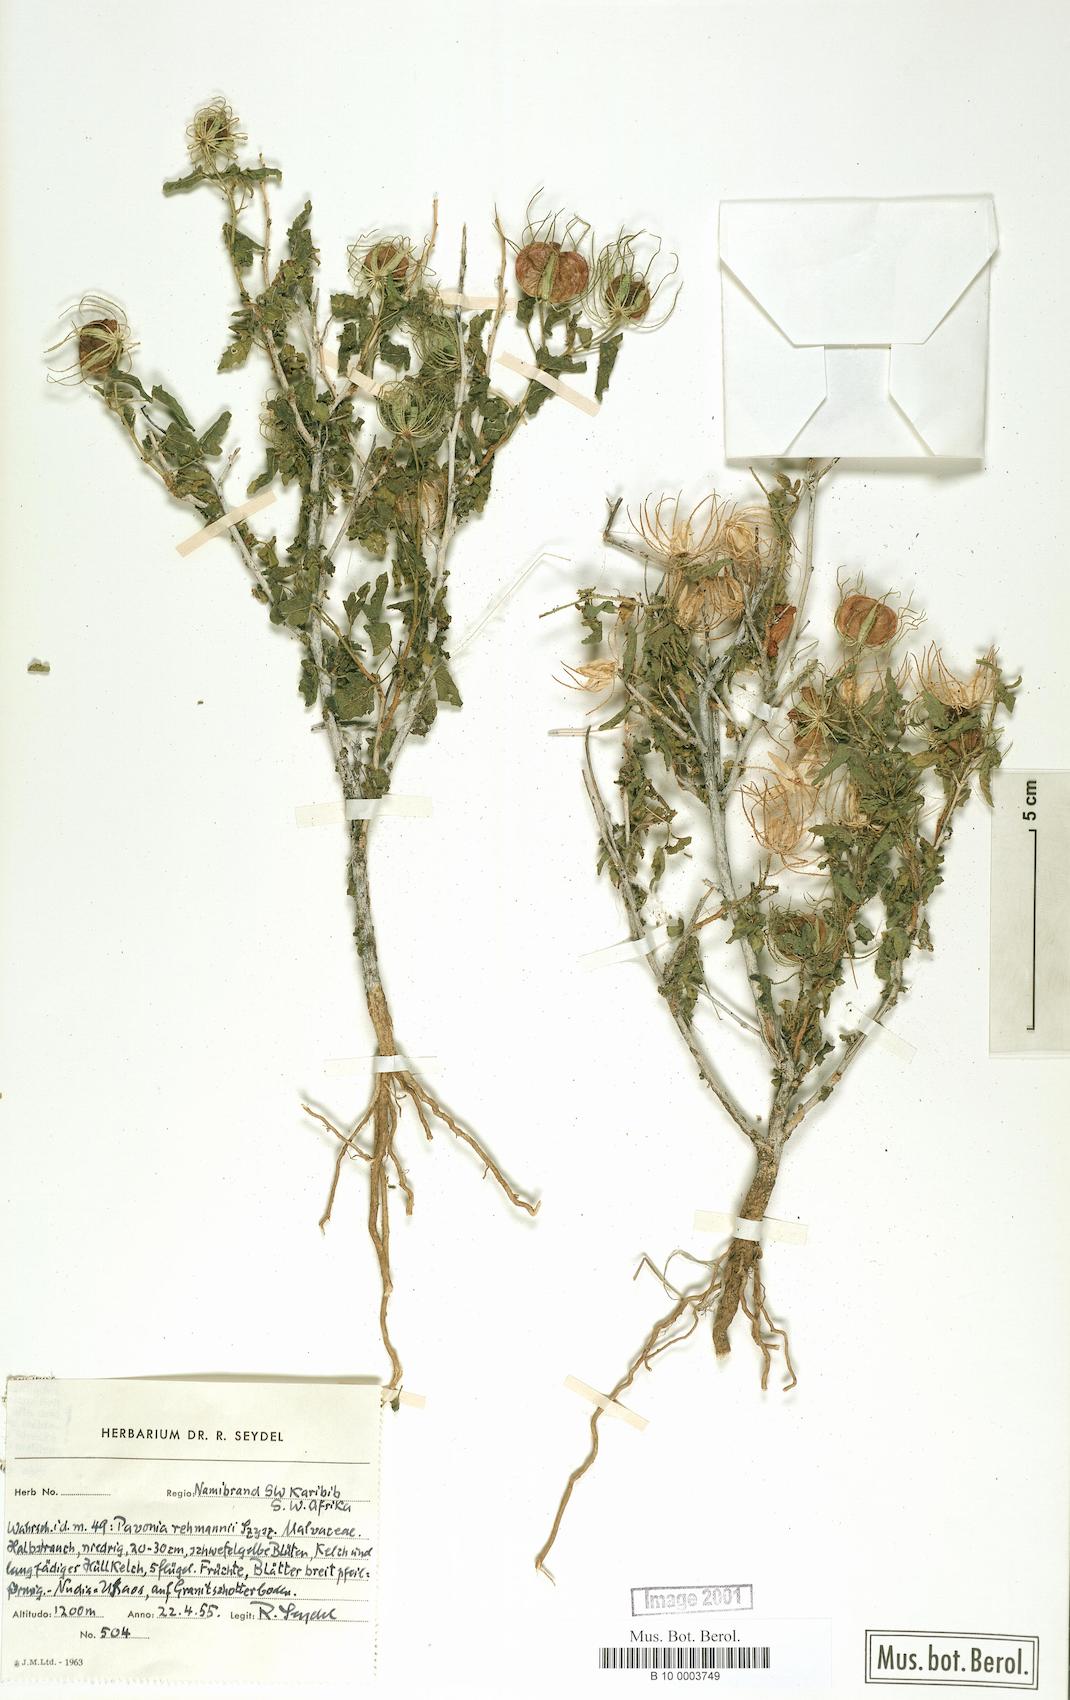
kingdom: Plantae
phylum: Tracheophyta
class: Magnoliopsida
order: Malvales
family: Malvaceae
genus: Pavonia
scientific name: Pavonia rehmannii
